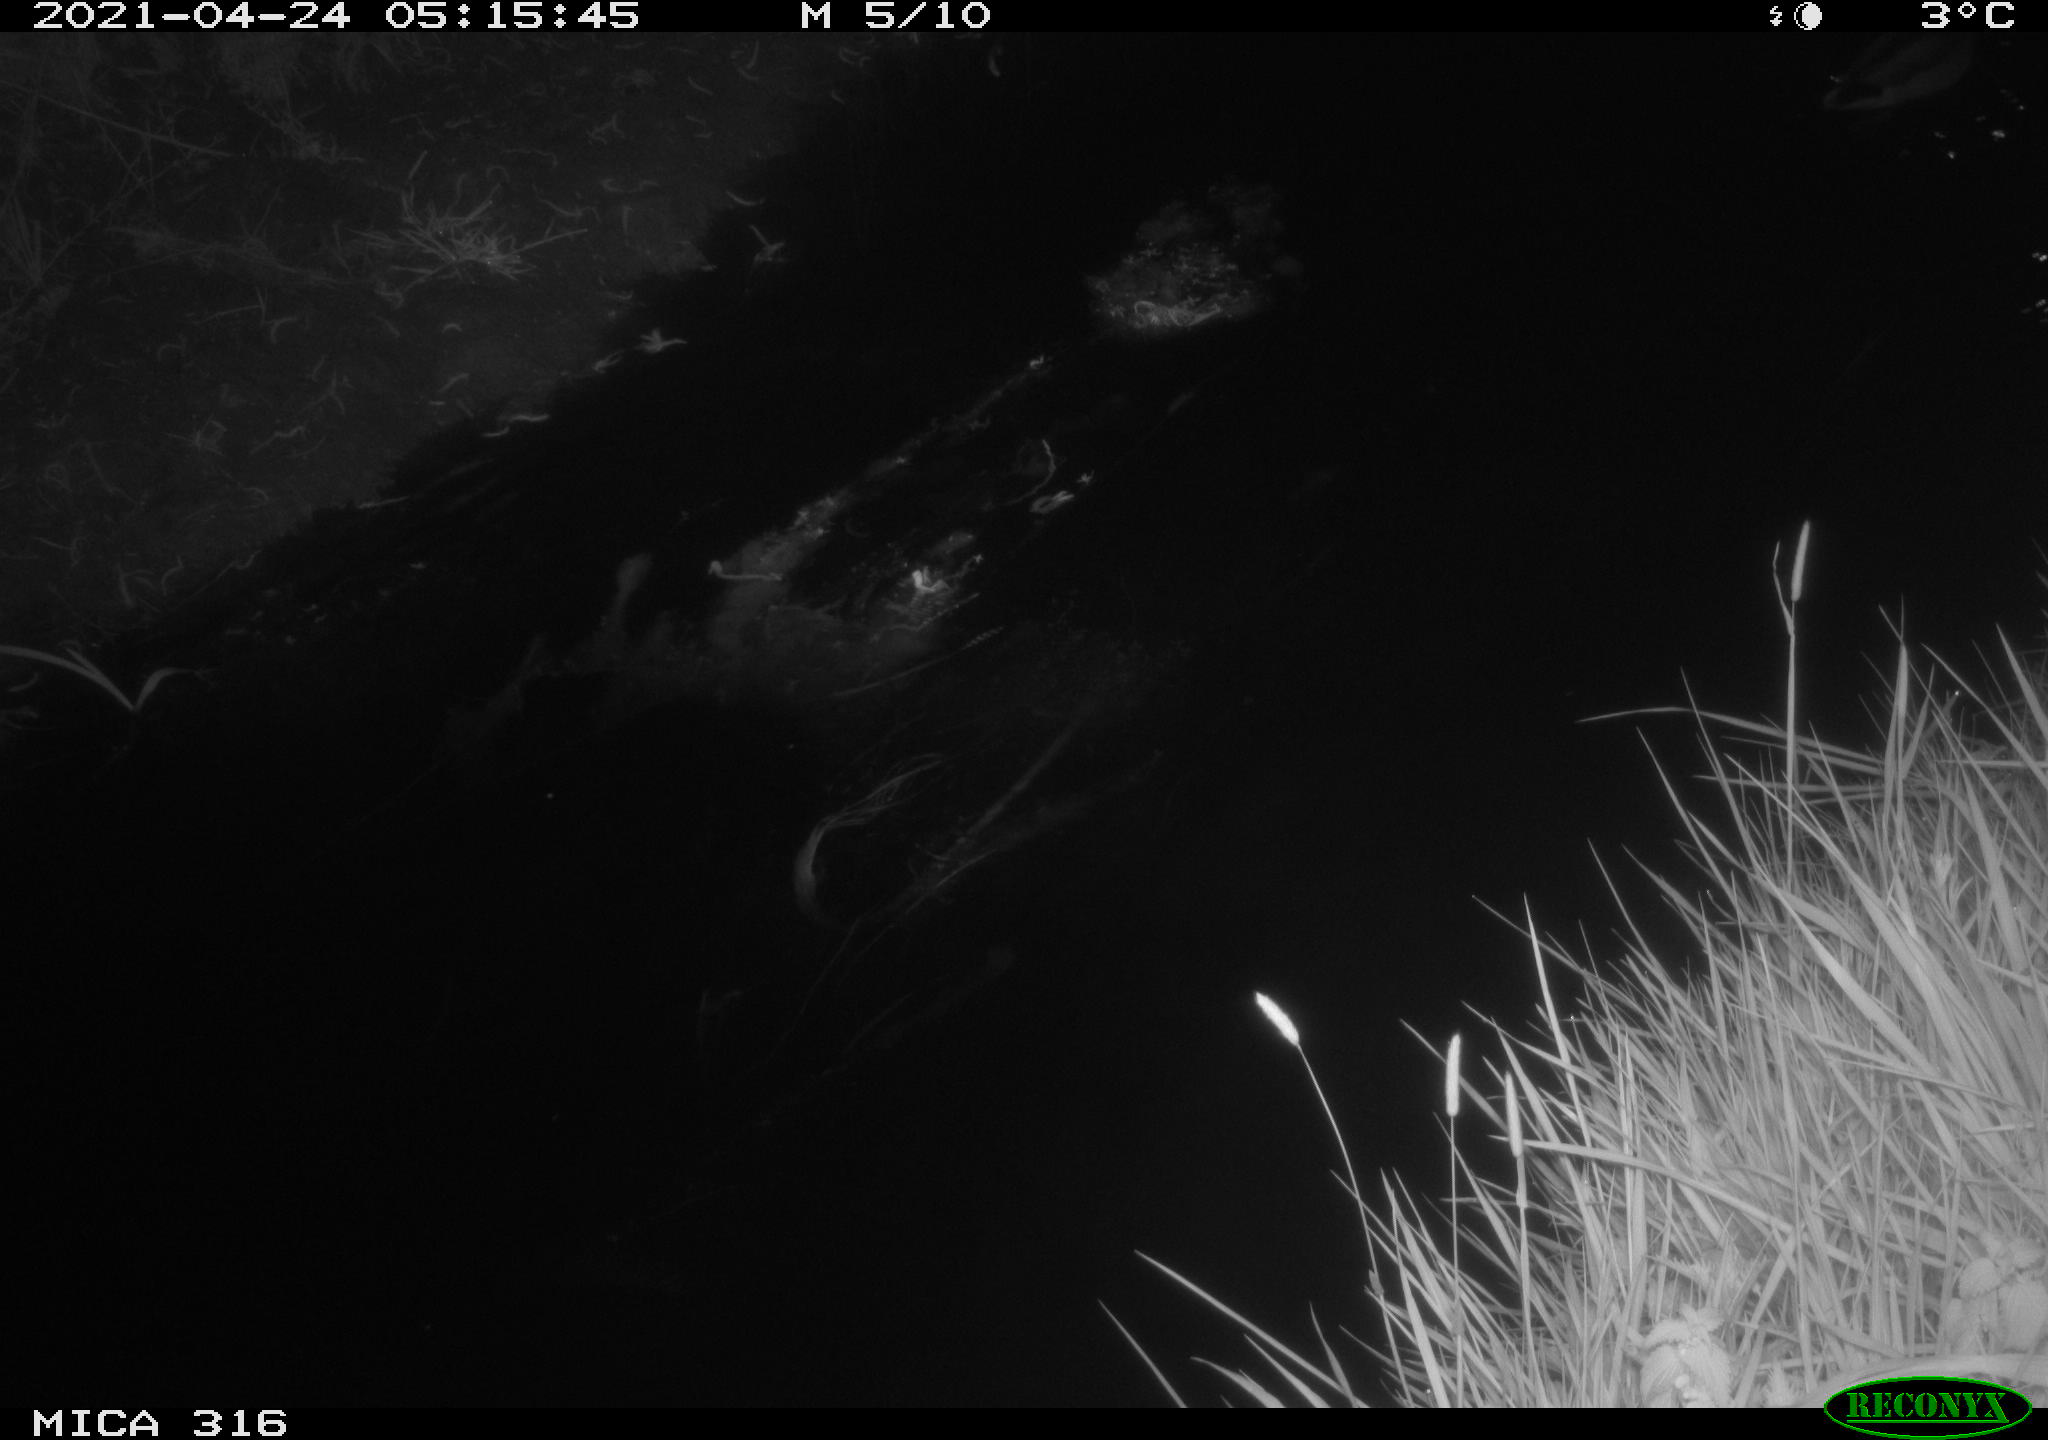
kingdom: Animalia
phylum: Chordata
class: Aves
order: Anseriformes
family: Anatidae
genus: Anas
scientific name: Anas platyrhynchos
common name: Mallard
